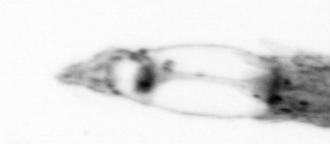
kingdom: Animalia
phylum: Arthropoda
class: Copepoda
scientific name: Copepoda
